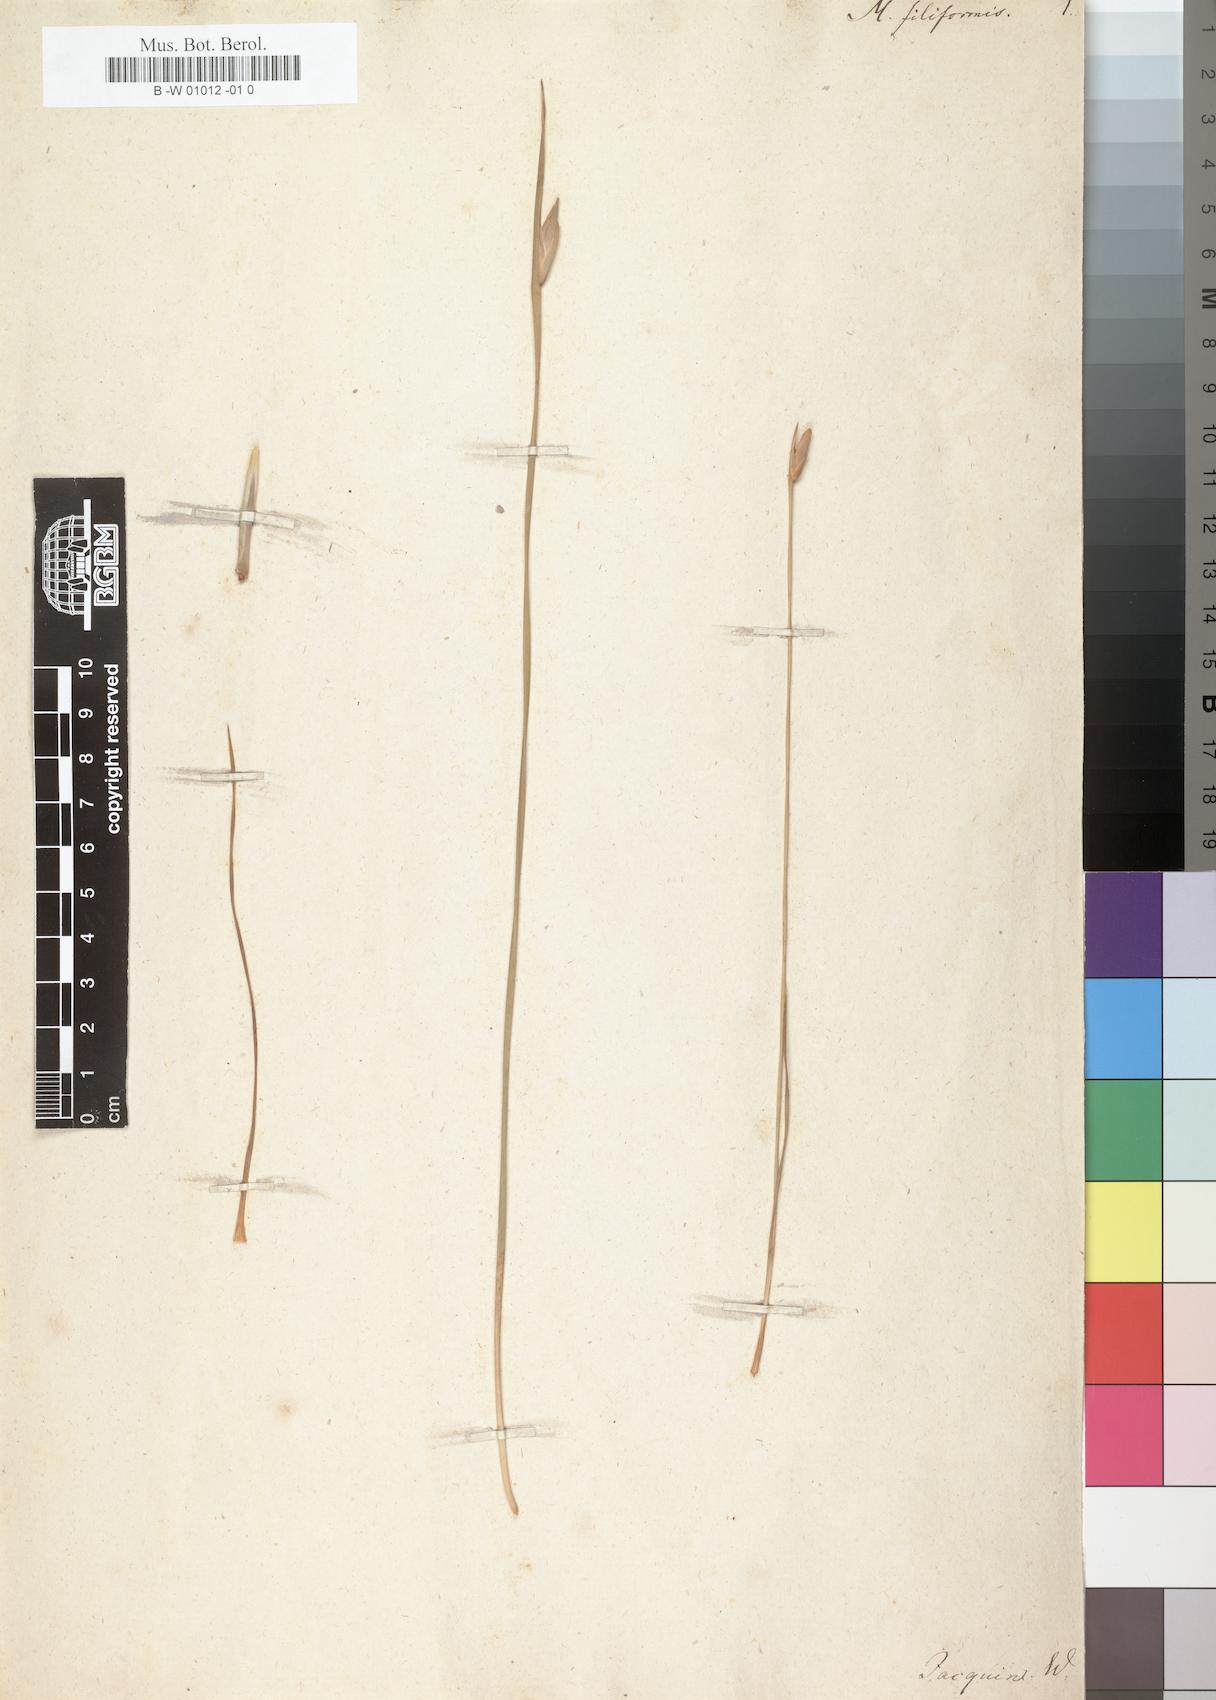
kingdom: Plantae
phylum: Tracheophyta
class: Liliopsida
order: Asparagales
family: Iridaceae
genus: Bobartia
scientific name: Bobartia filiformis
